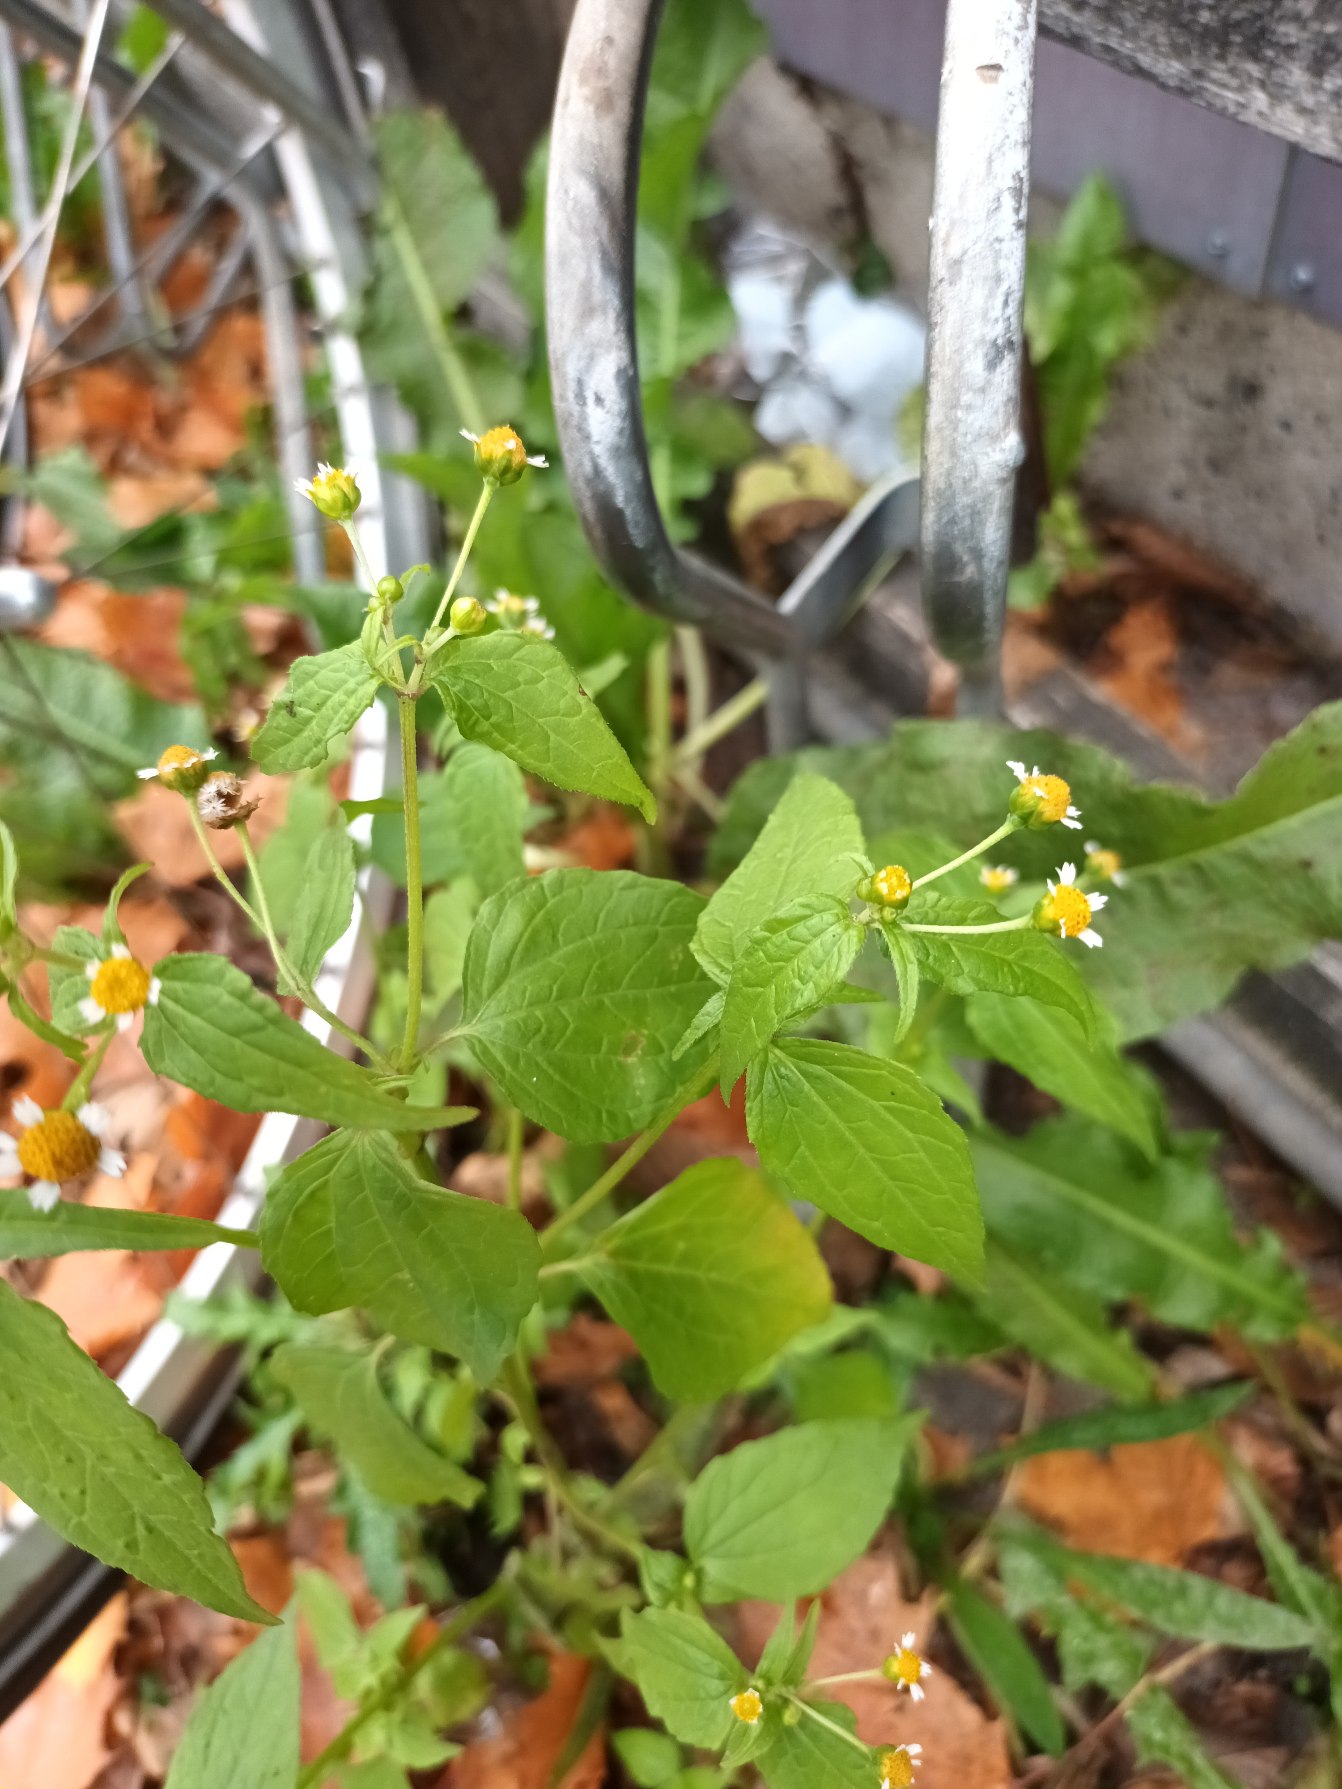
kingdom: Plantae
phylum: Tracheophyta
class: Magnoliopsida
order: Asterales
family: Asteraceae
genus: Galinsoga
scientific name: Galinsoga parviflora
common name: Håret kortstråle
